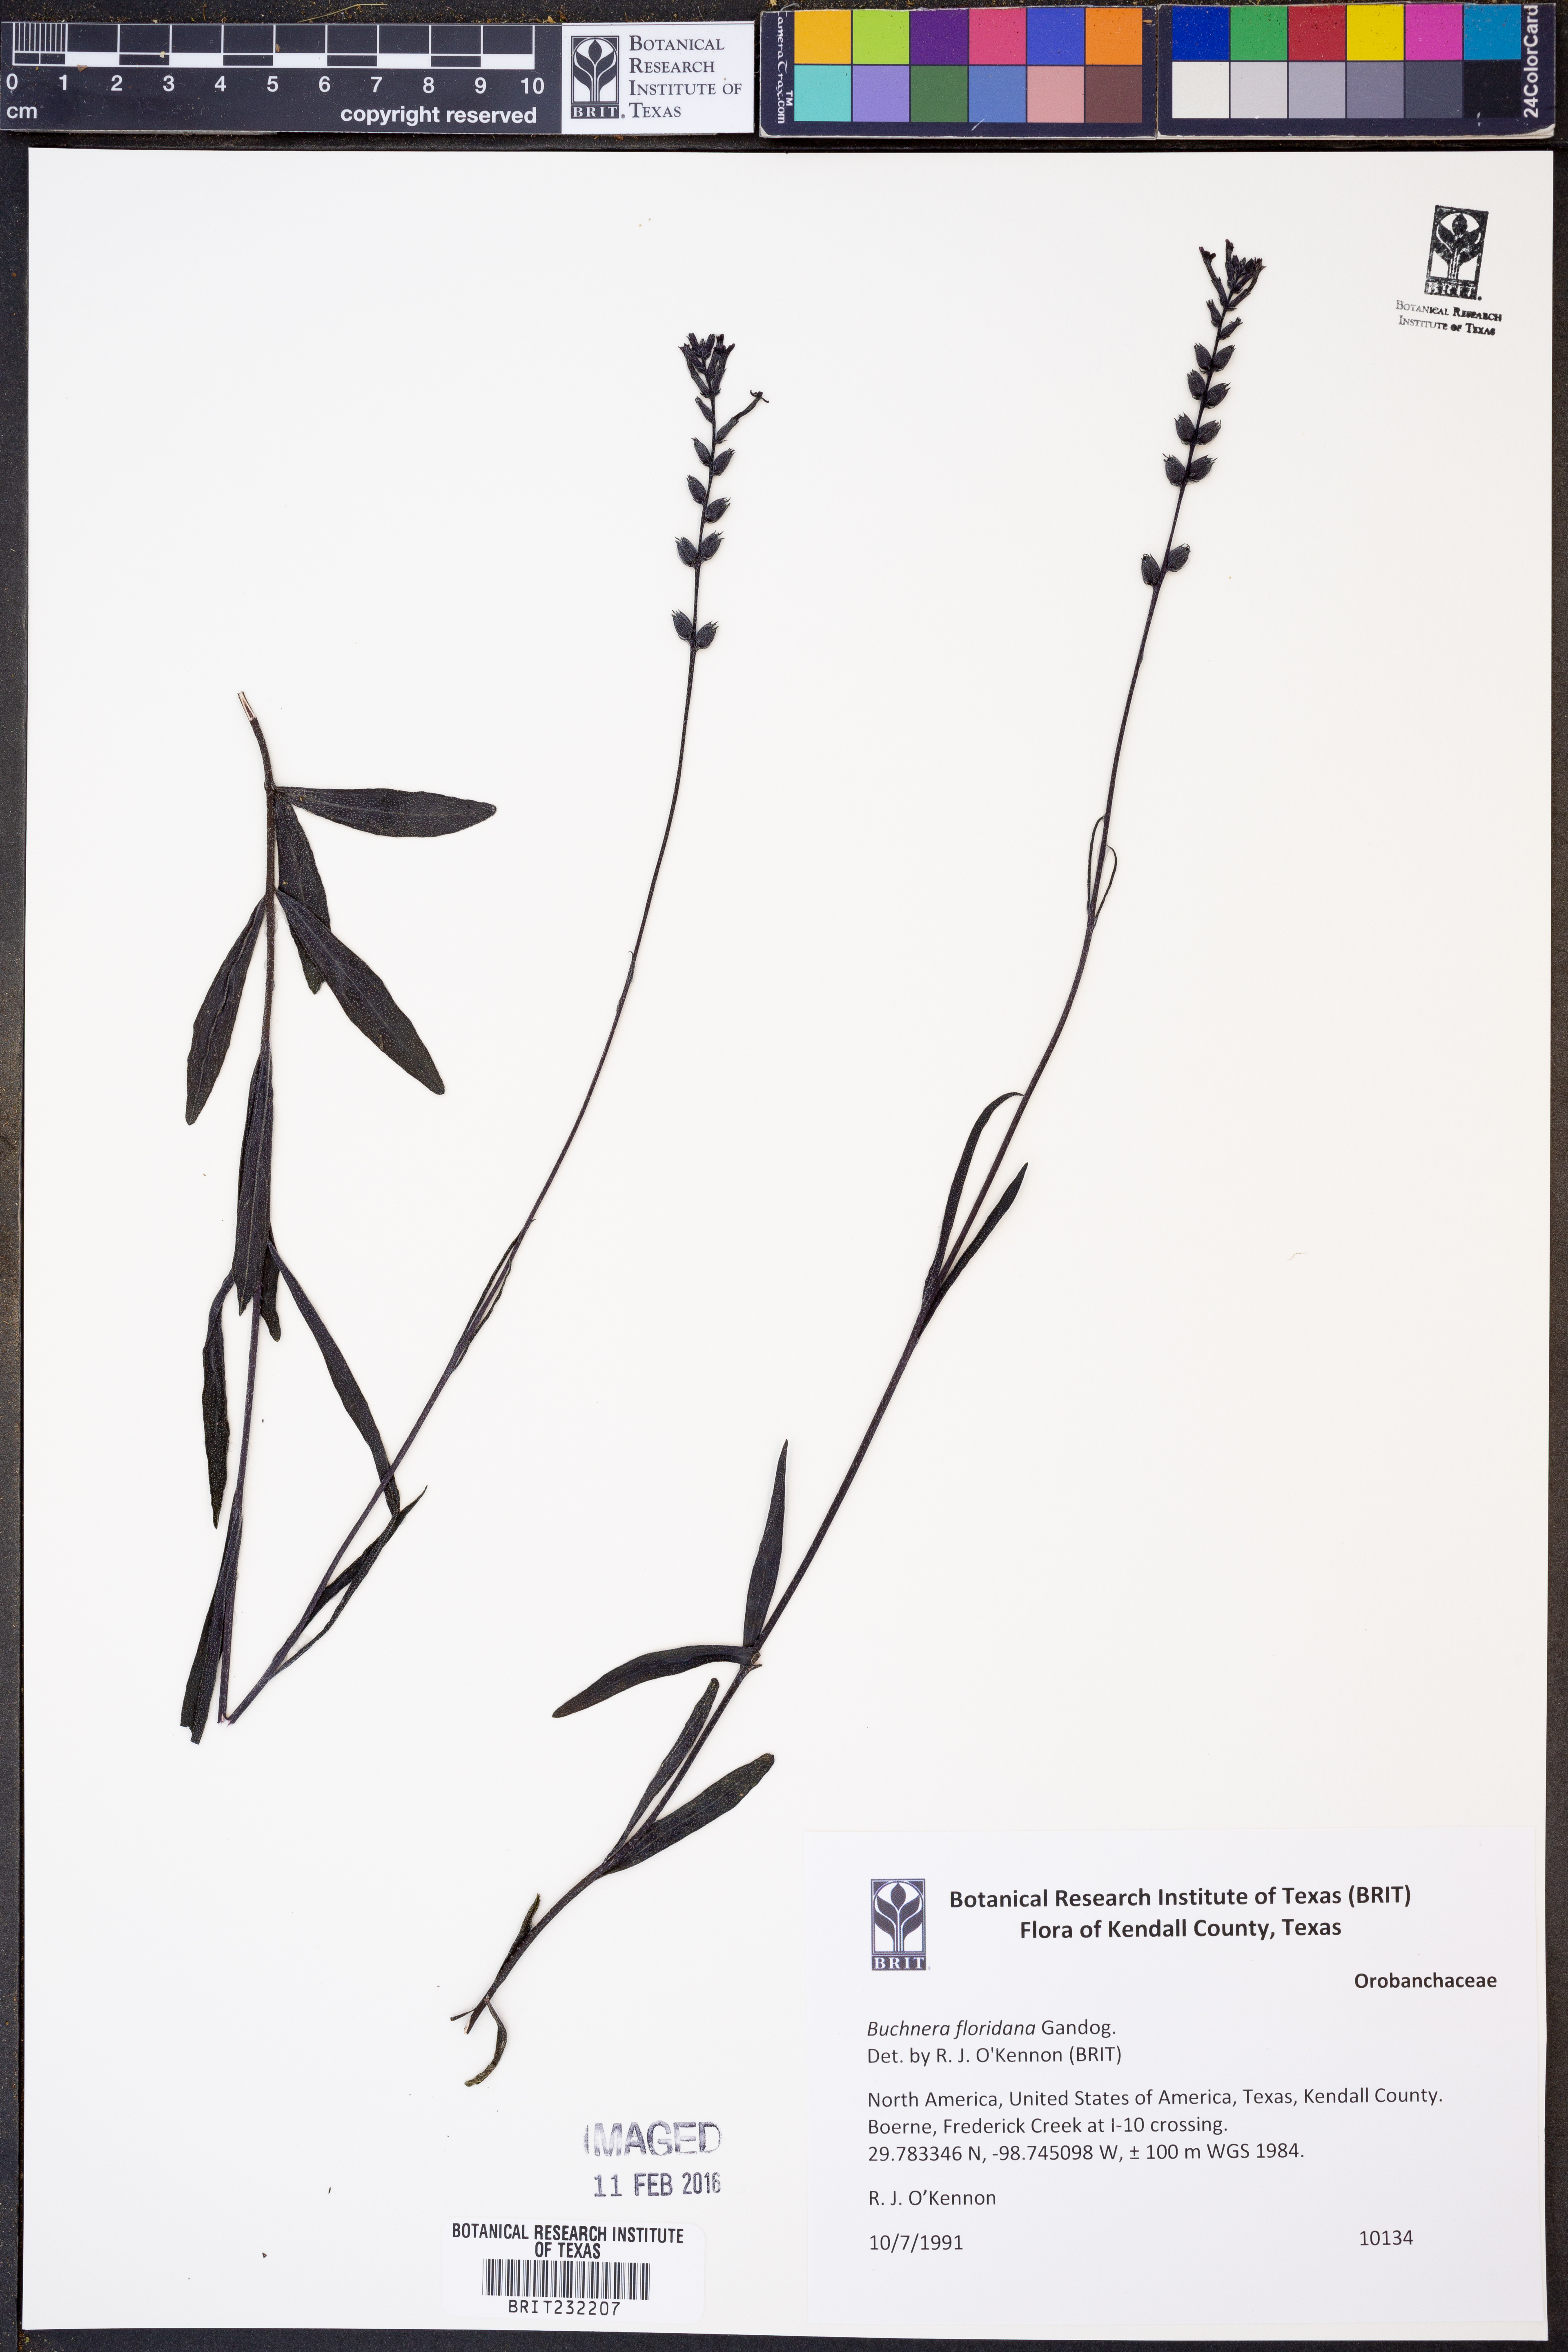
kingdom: Plantae
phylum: Tracheophyta
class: Magnoliopsida
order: Lamiales
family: Orobanchaceae
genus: Buchnera
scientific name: Buchnera floridana
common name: Florida bluehearts
